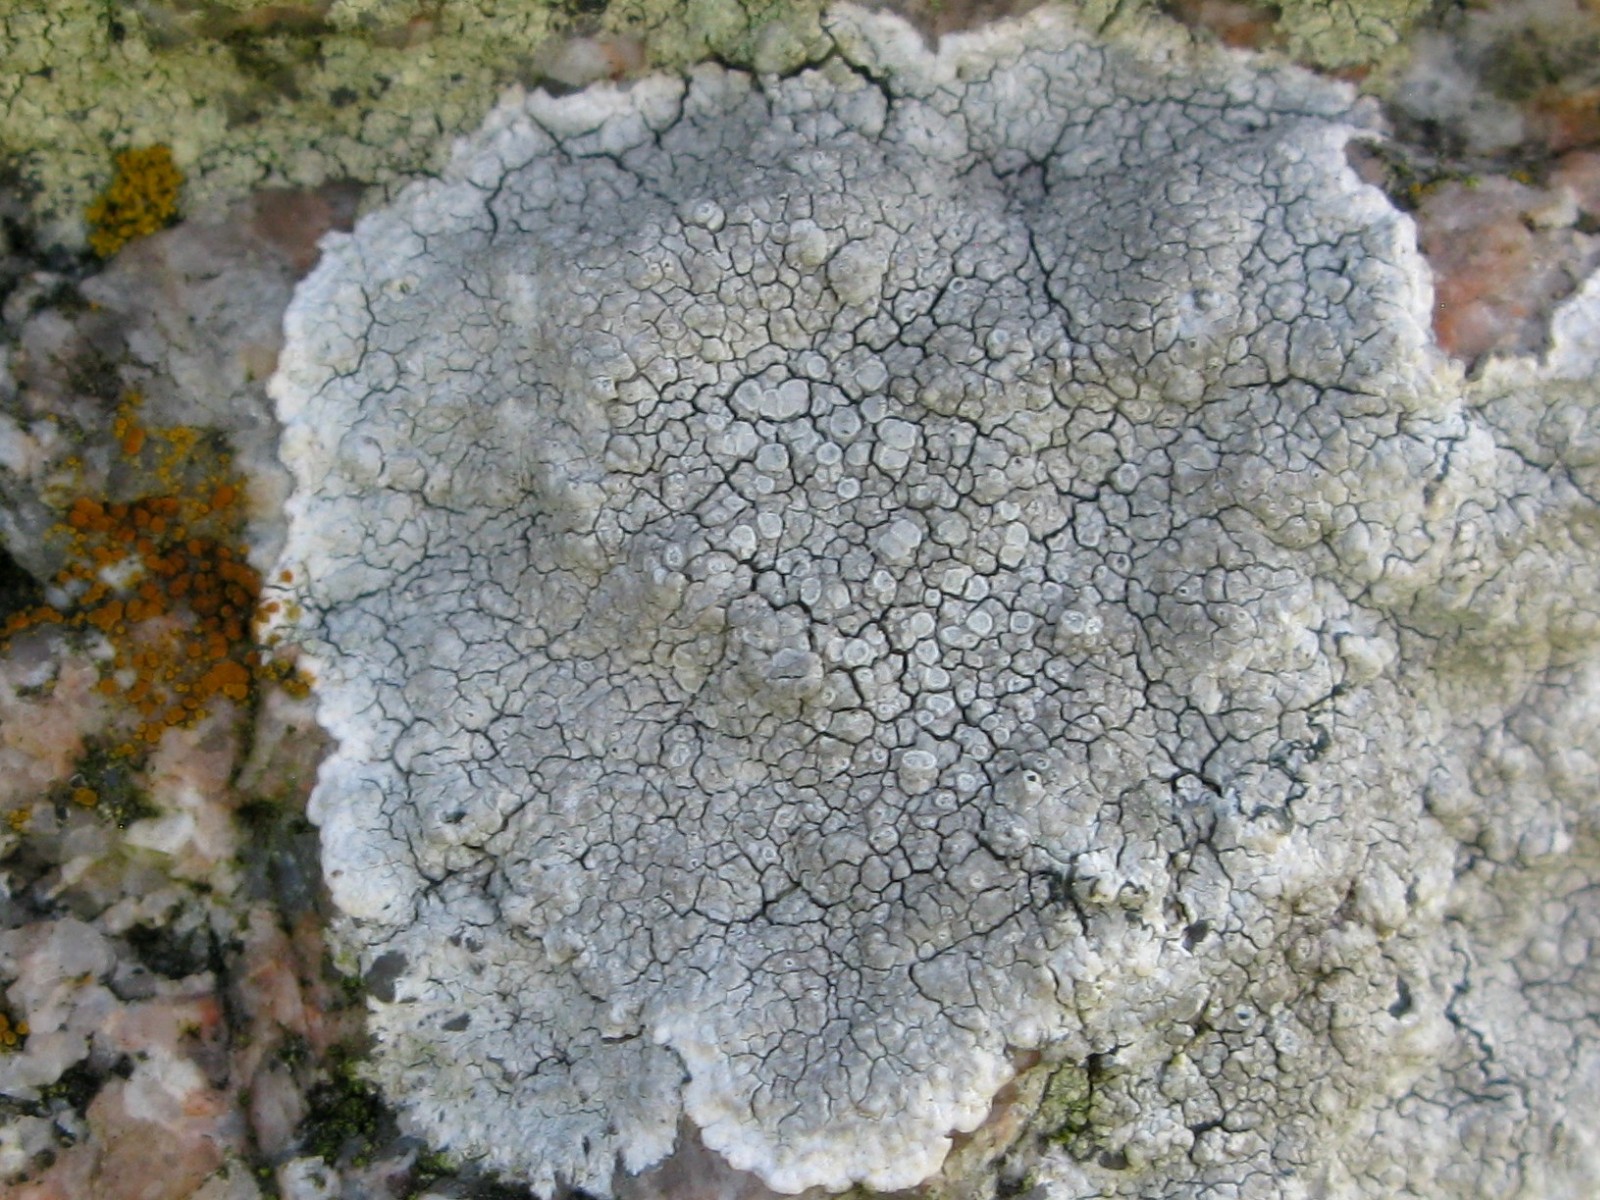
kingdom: Fungi
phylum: Ascomycota
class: Lecanoromycetes
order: Lecanorales
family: Lecanoraceae
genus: Glaucomaria
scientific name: Glaucomaria rupicola
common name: stengærde-kantskivelav
